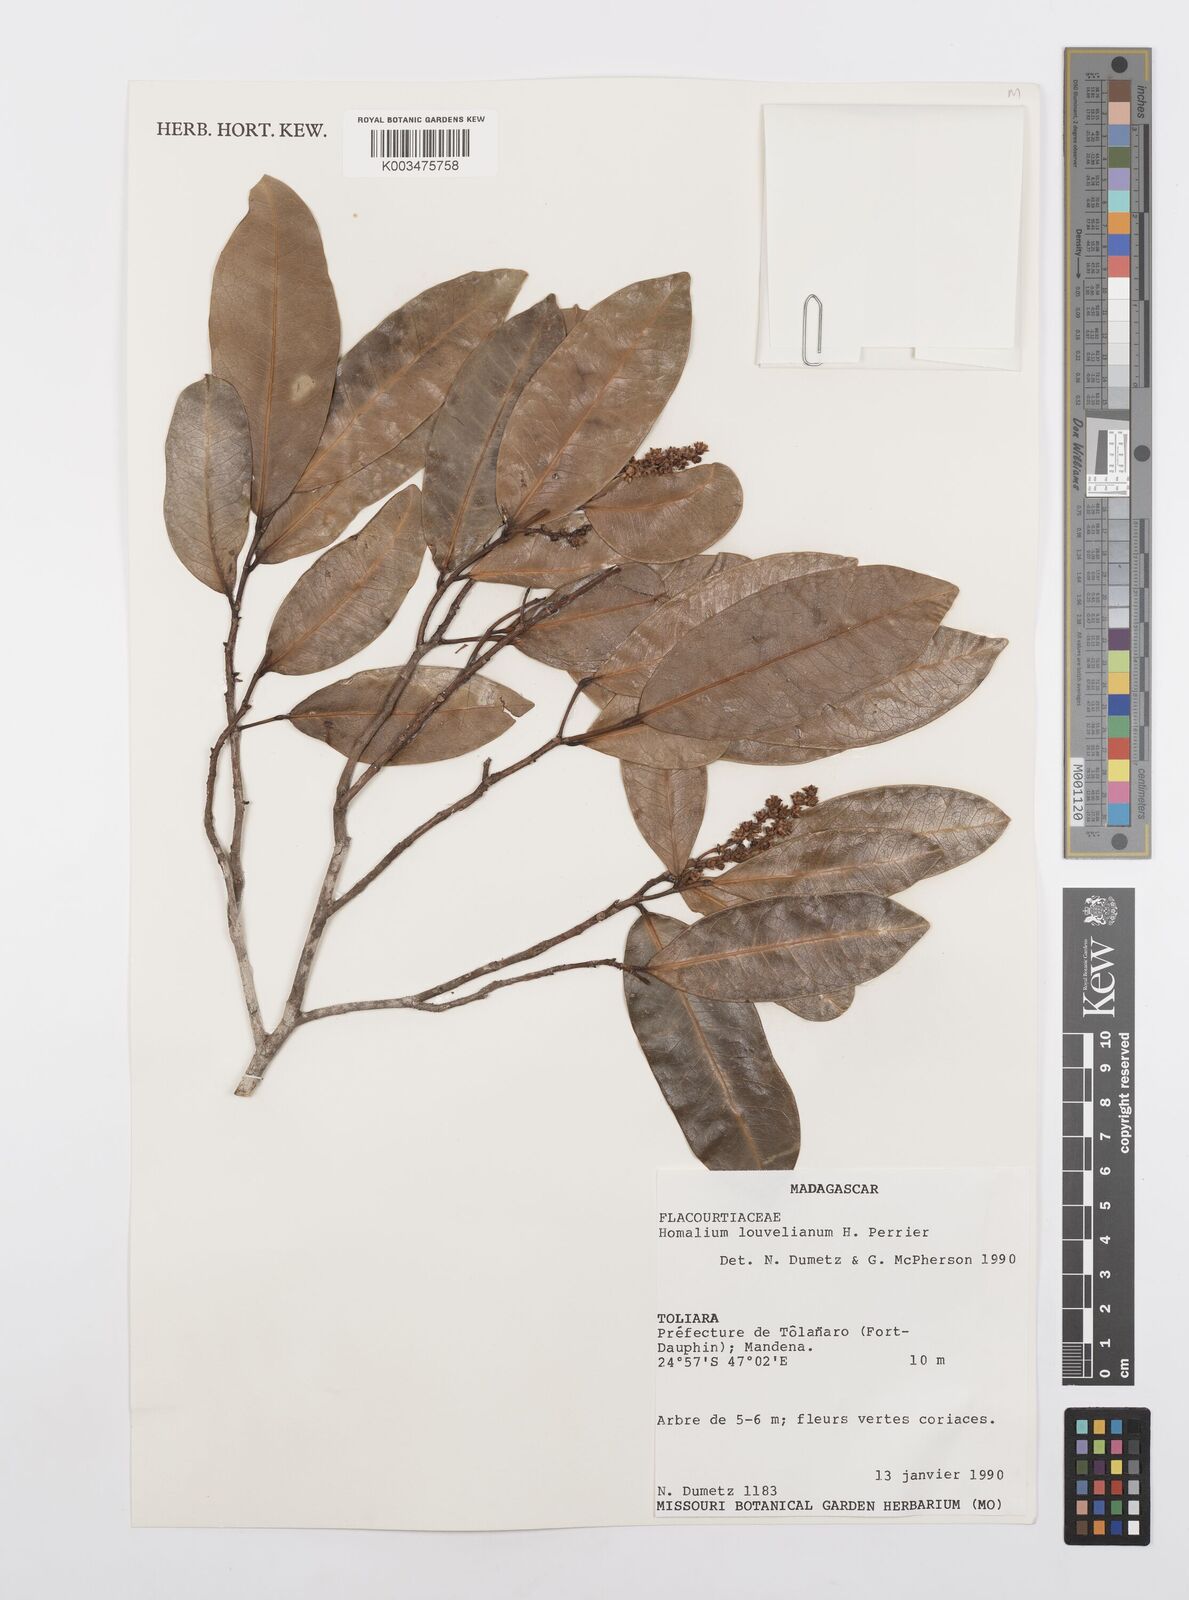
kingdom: Plantae
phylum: Tracheophyta
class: Magnoliopsida
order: Malpighiales
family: Salicaceae
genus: Homalium
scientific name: Homalium louvelianum
